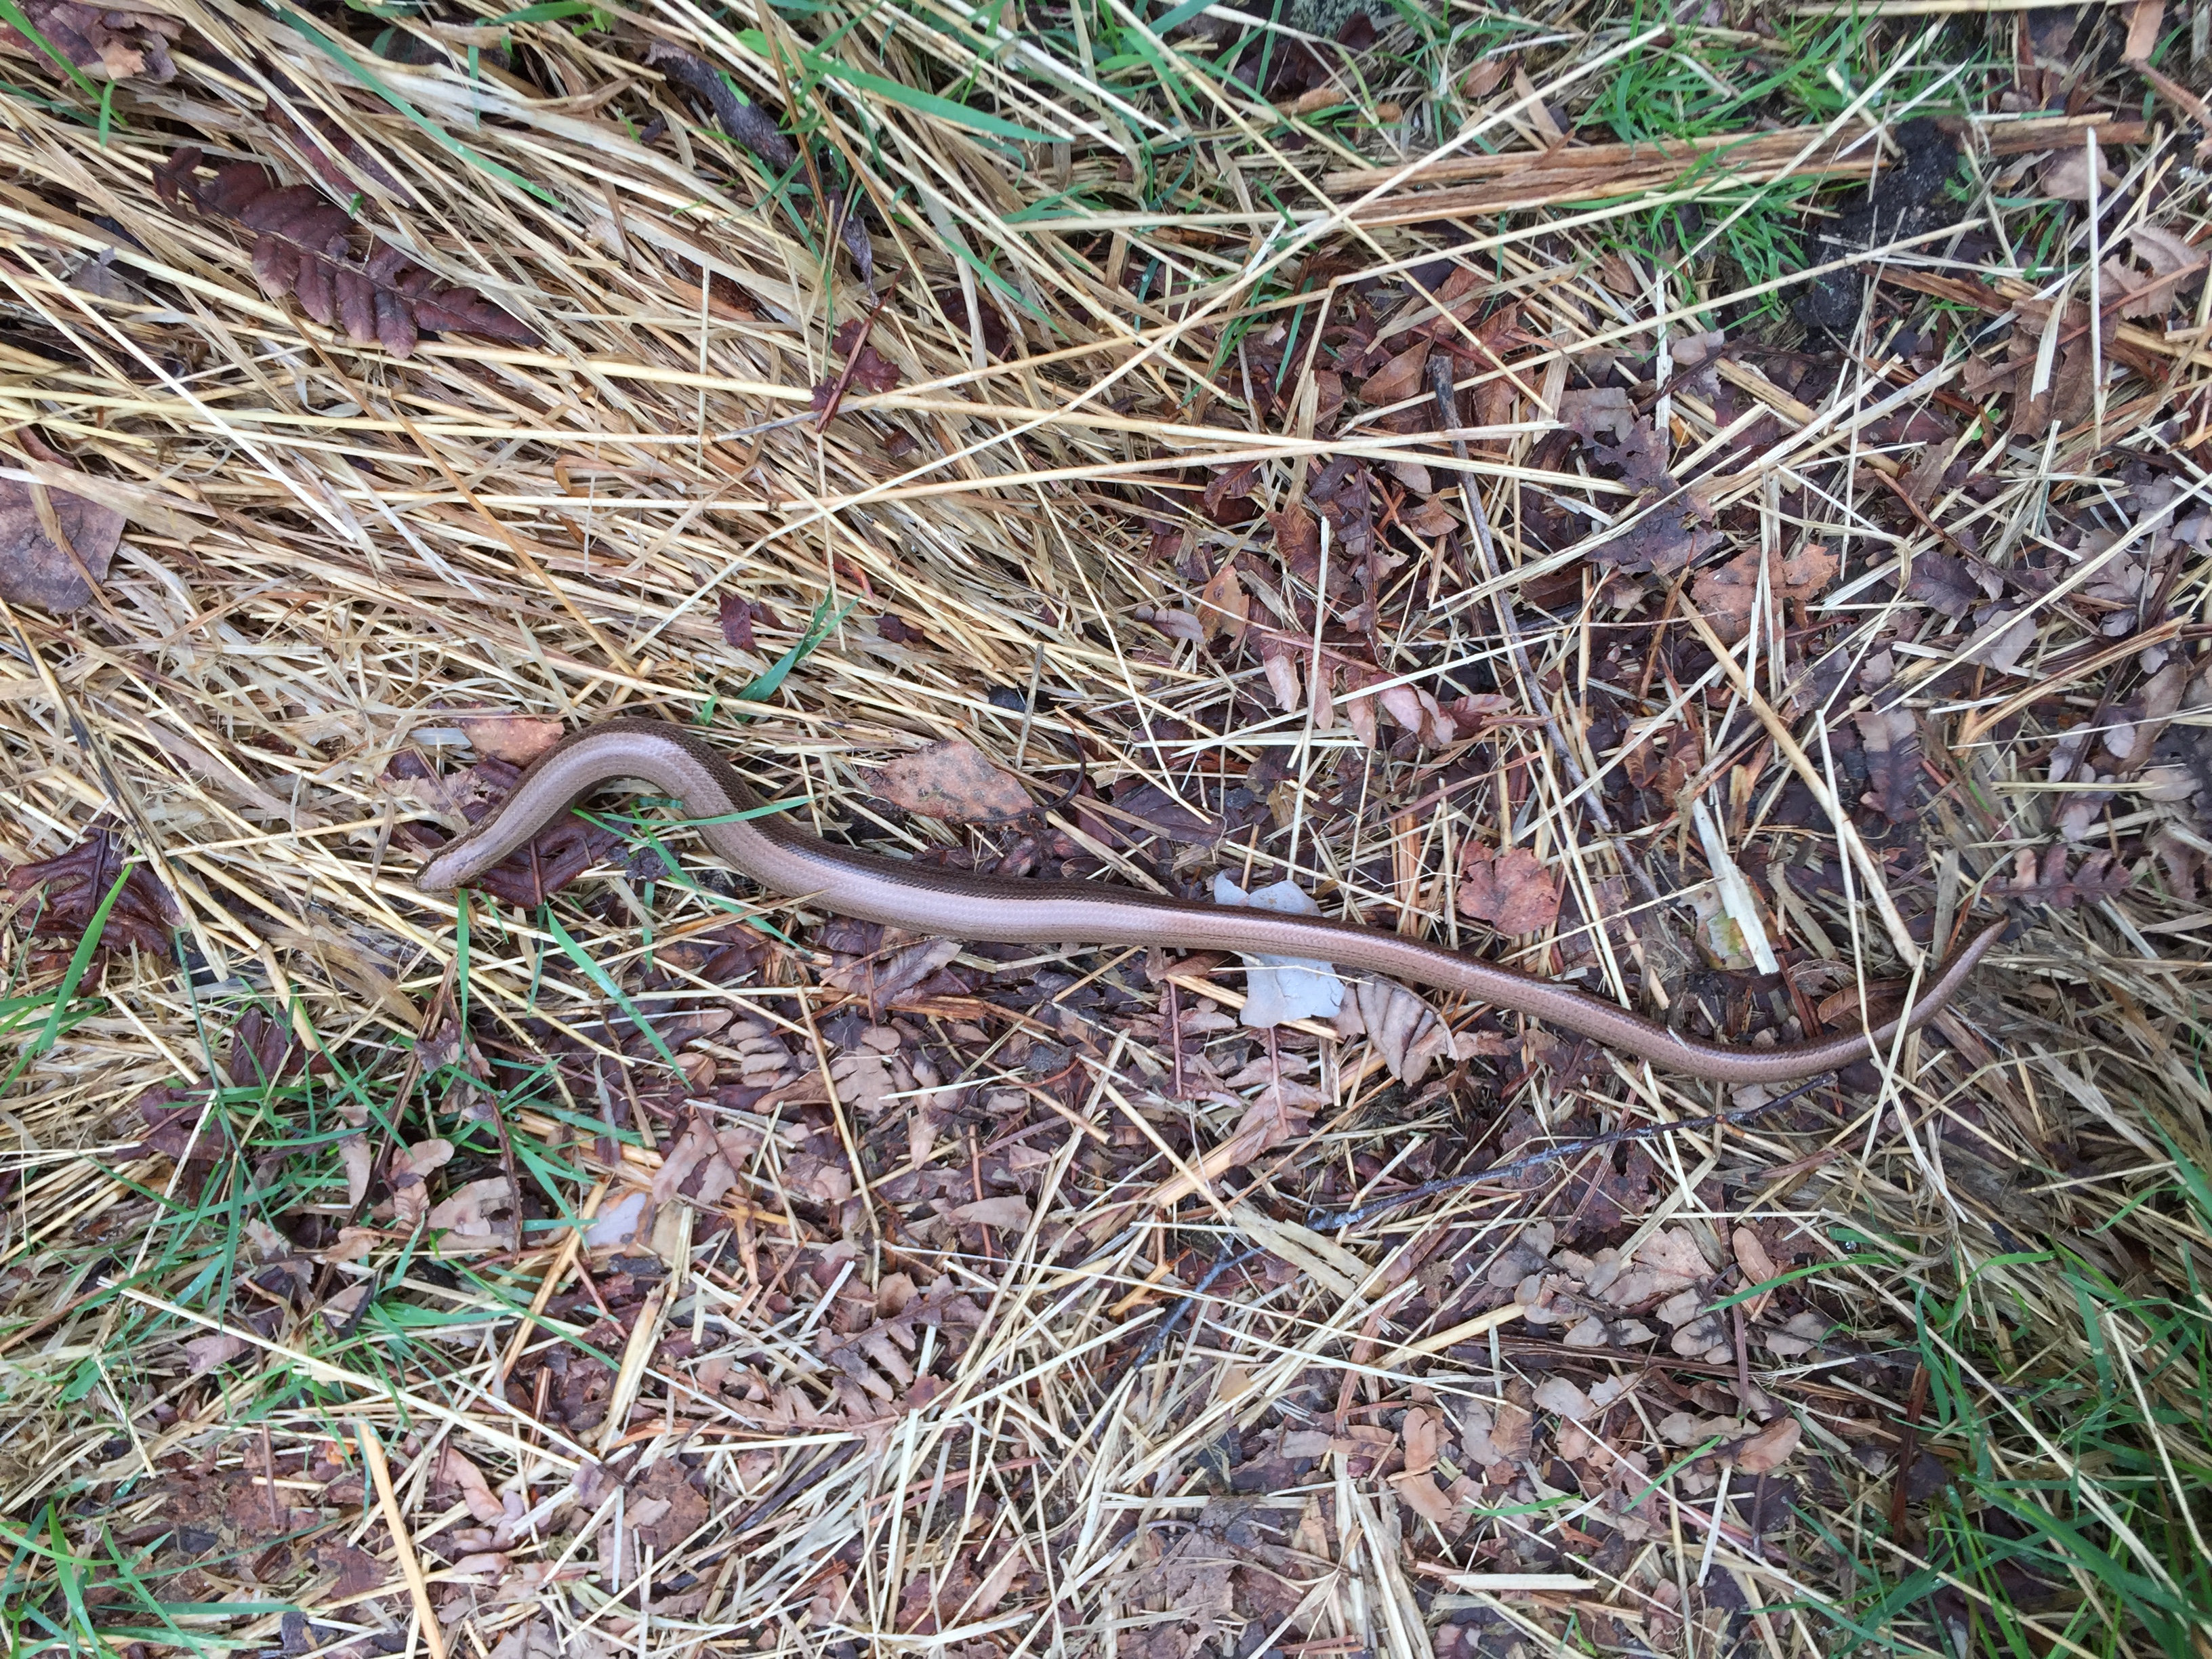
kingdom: Animalia
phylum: Chordata
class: Squamata
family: Anguidae
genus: Anguis
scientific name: Anguis colchica
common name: Slow worm
